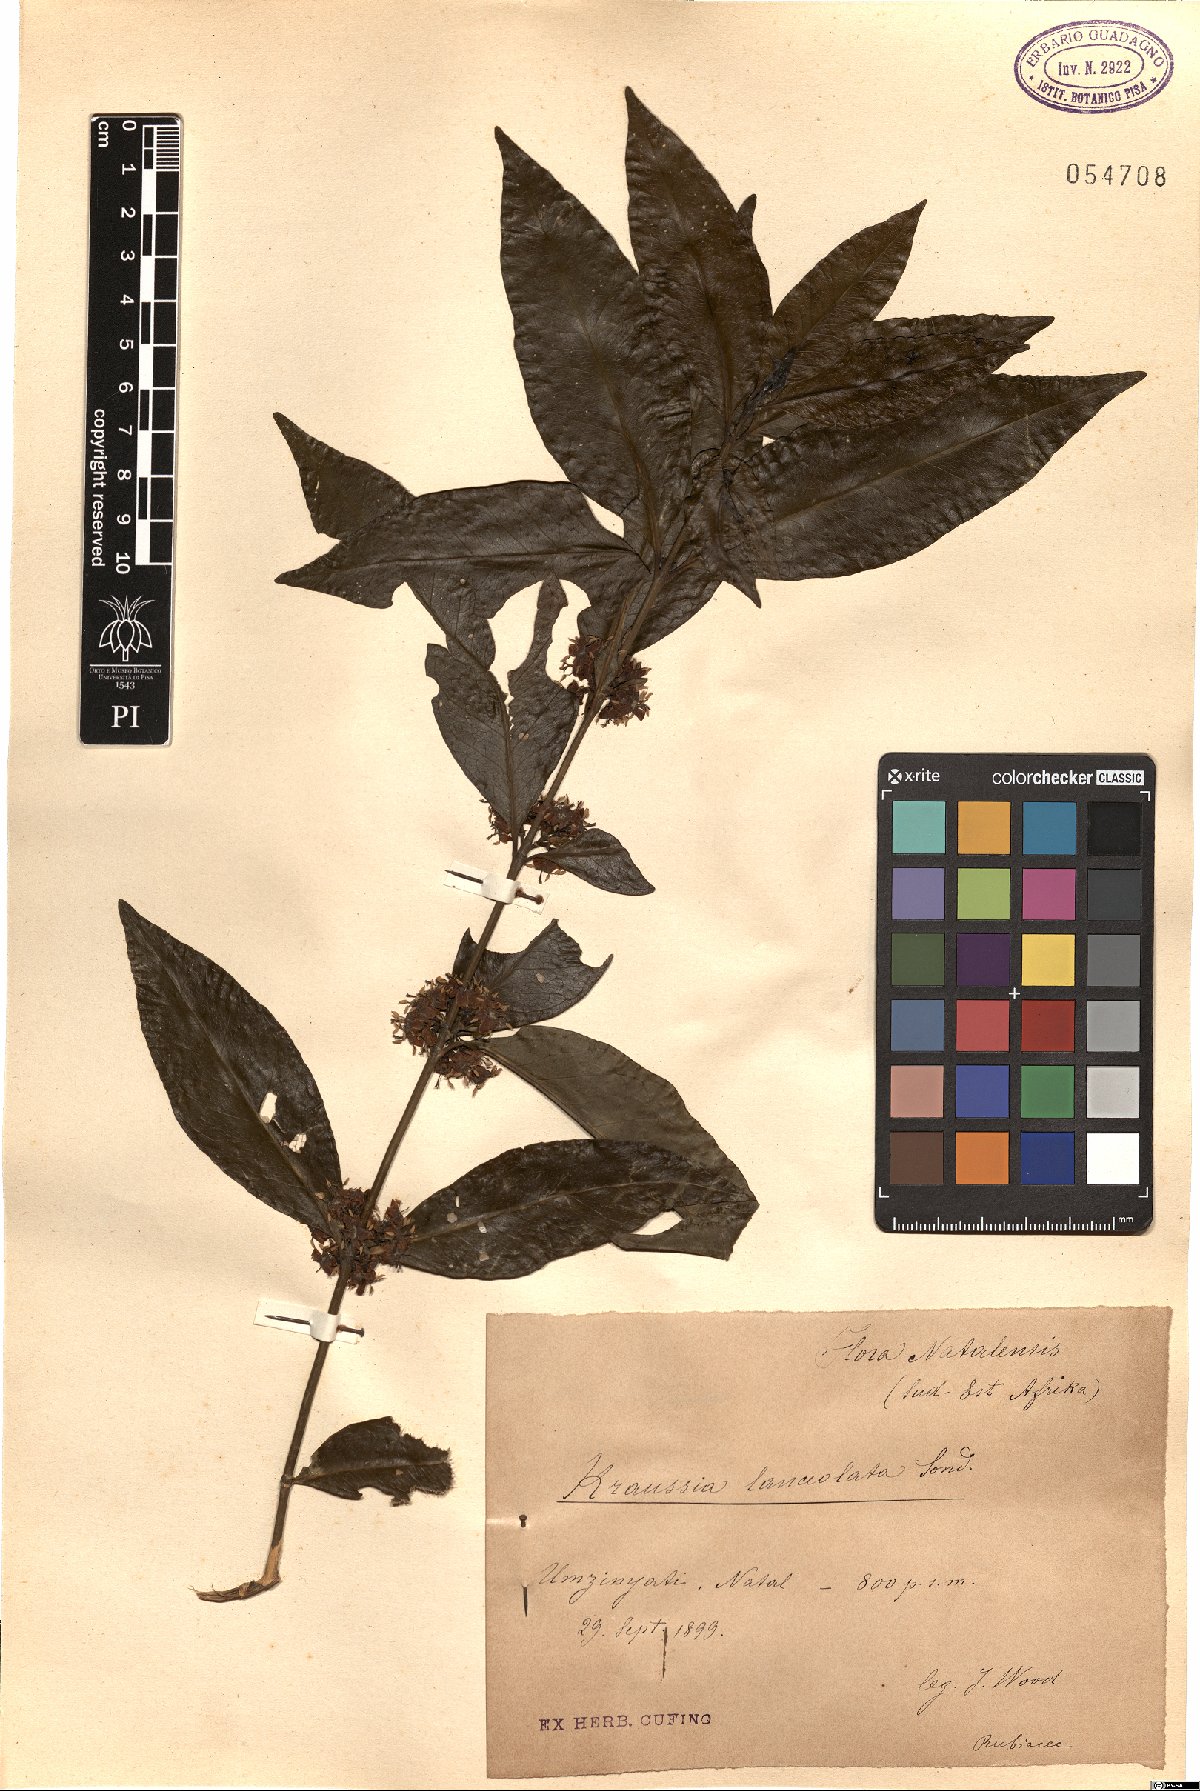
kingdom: Plantae
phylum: Tracheophyta
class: Magnoliopsida
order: Gentianales
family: Rubiaceae
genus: Empogona
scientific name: Empogona lanceolata
